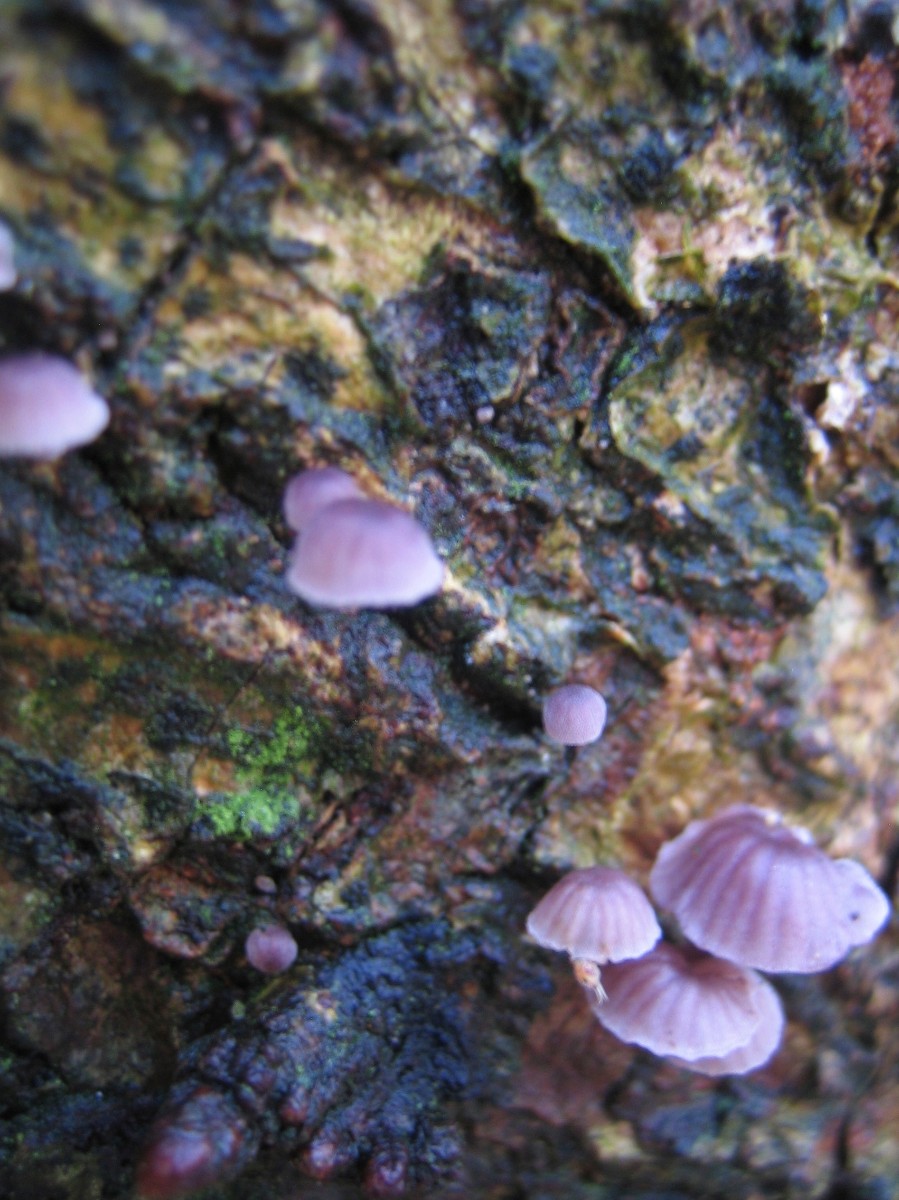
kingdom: Fungi
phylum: Basidiomycota
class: Agaricomycetes
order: Agaricales
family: Mycenaceae
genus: Mycena
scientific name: Mycena meliigena
